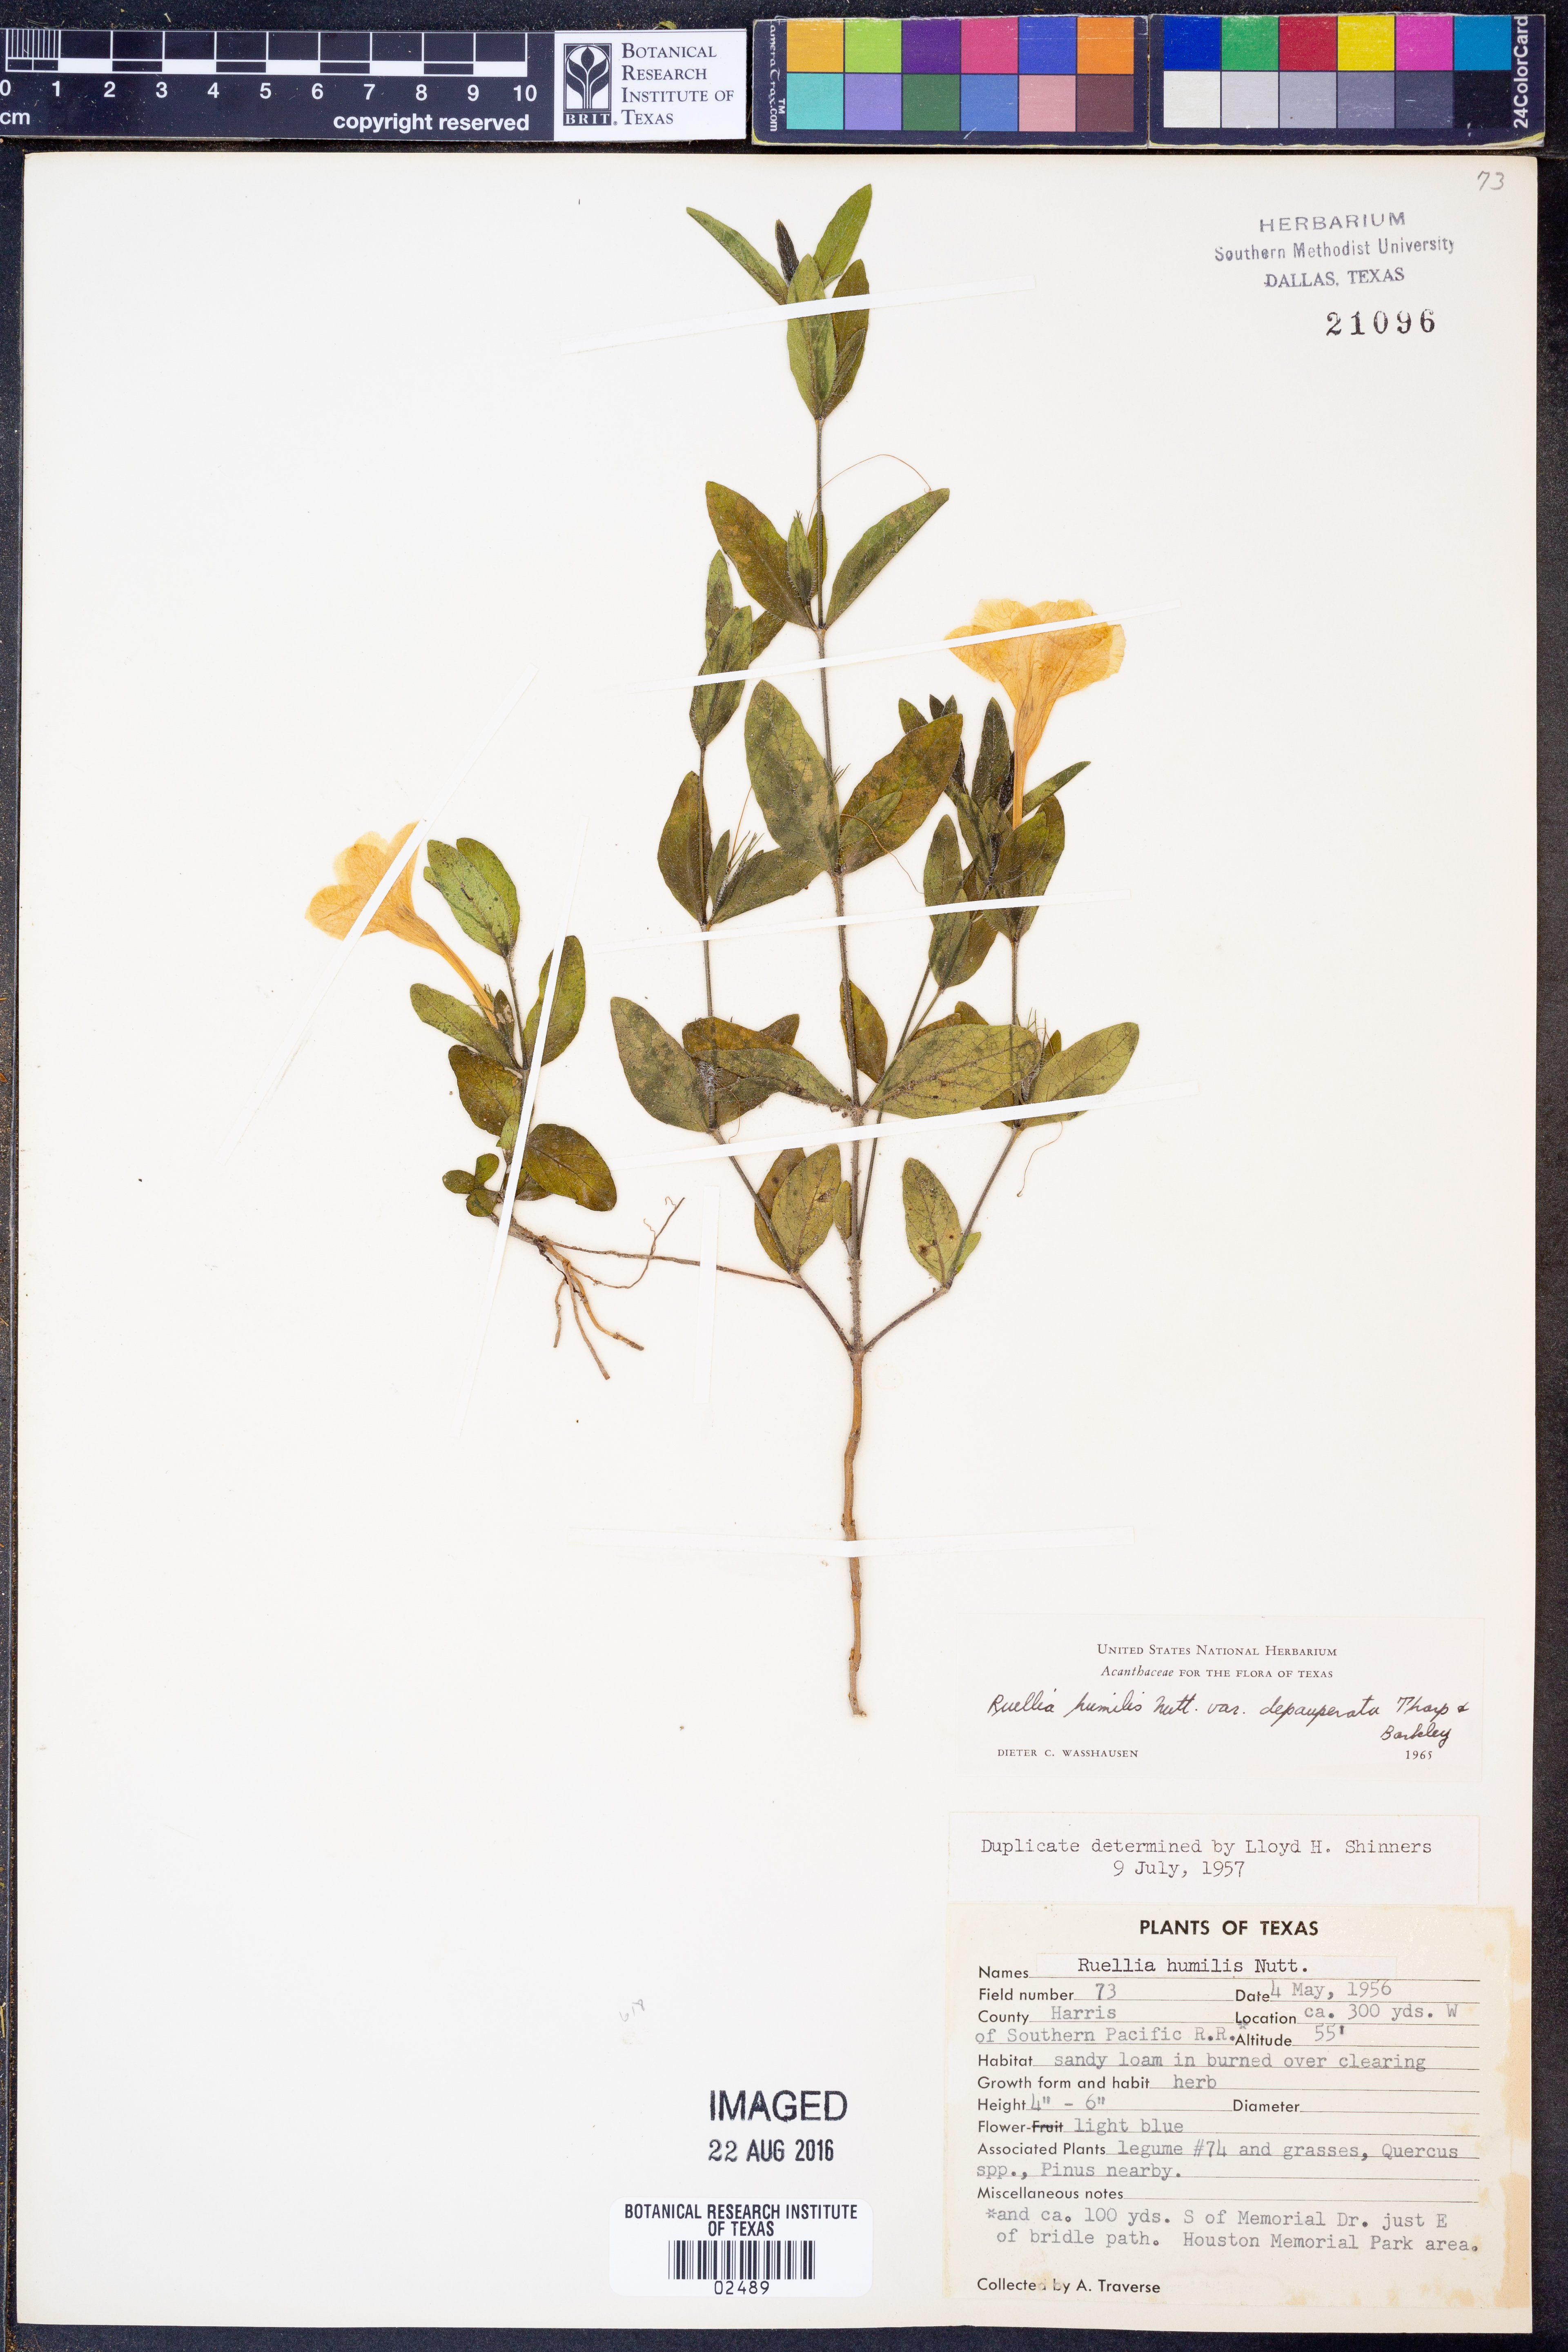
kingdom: Plantae
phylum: Tracheophyta
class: Magnoliopsida
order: Lamiales
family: Acanthaceae
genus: Ruellia
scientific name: Ruellia humilis
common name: Fringe-leaf ruellia
